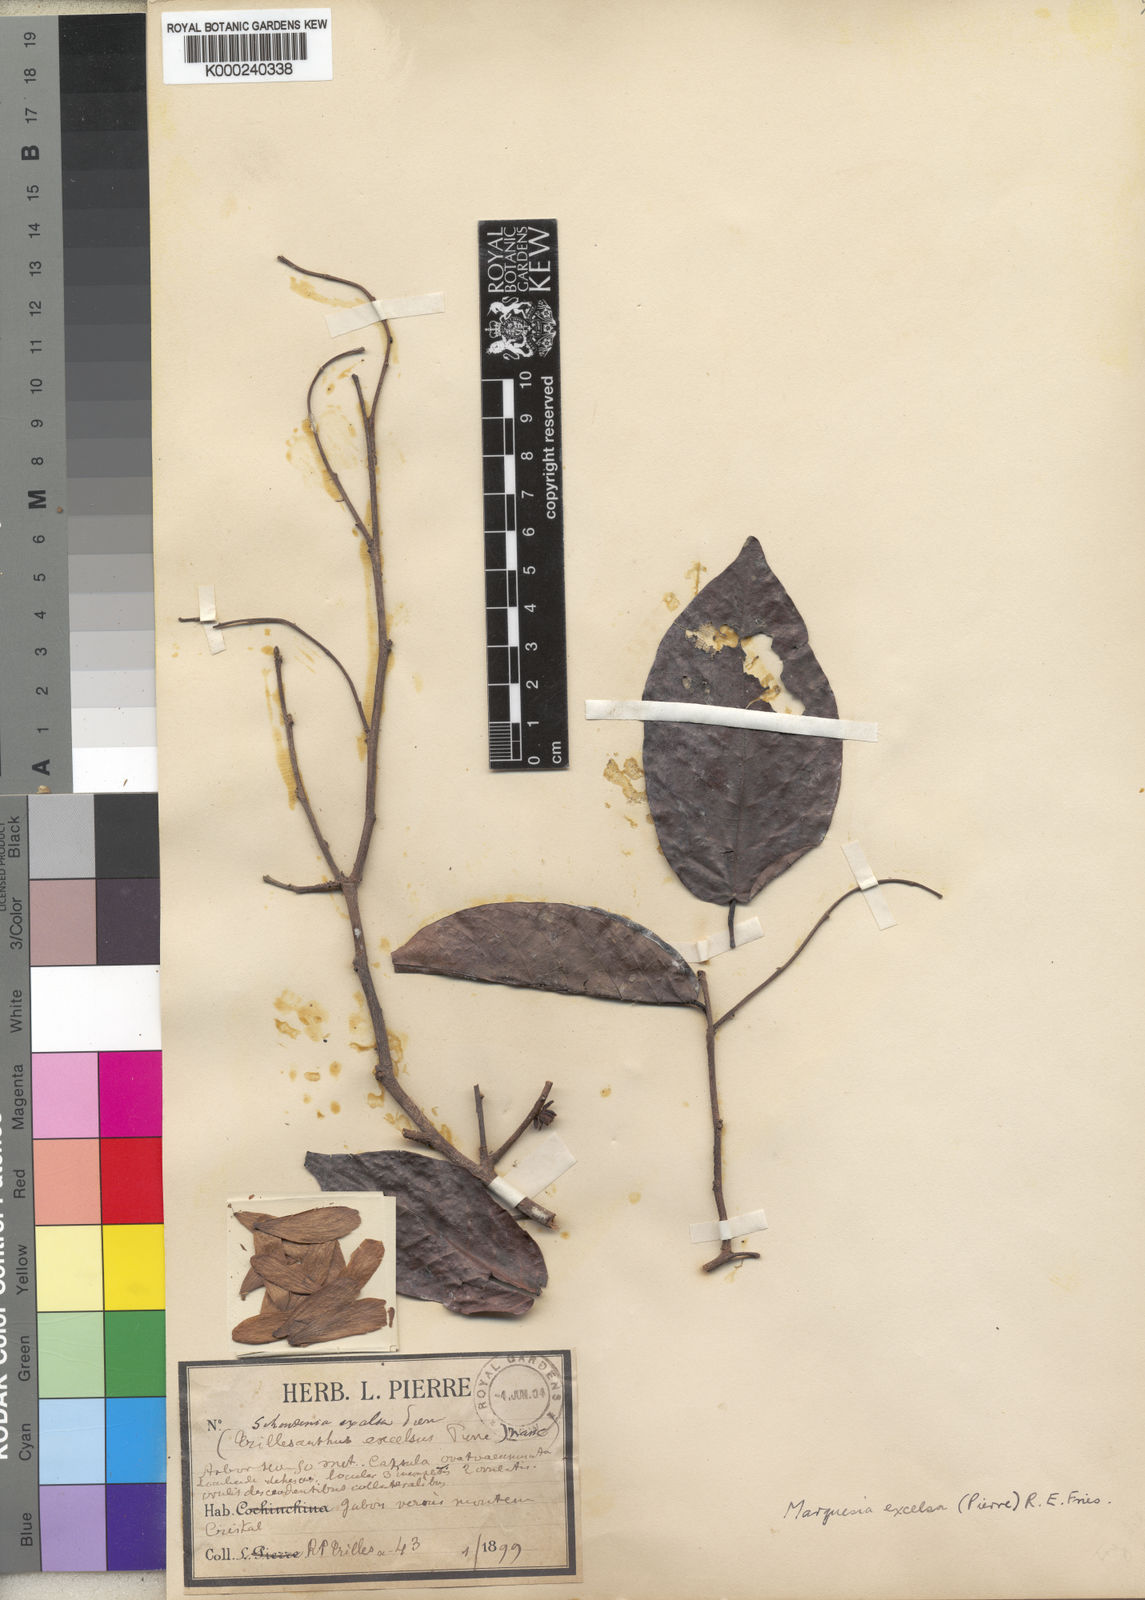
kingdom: Plantae
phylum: Tracheophyta
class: Magnoliopsida
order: Malvales
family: Dipterocarpaceae
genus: Marquesia
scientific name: Marquesia excelsa
